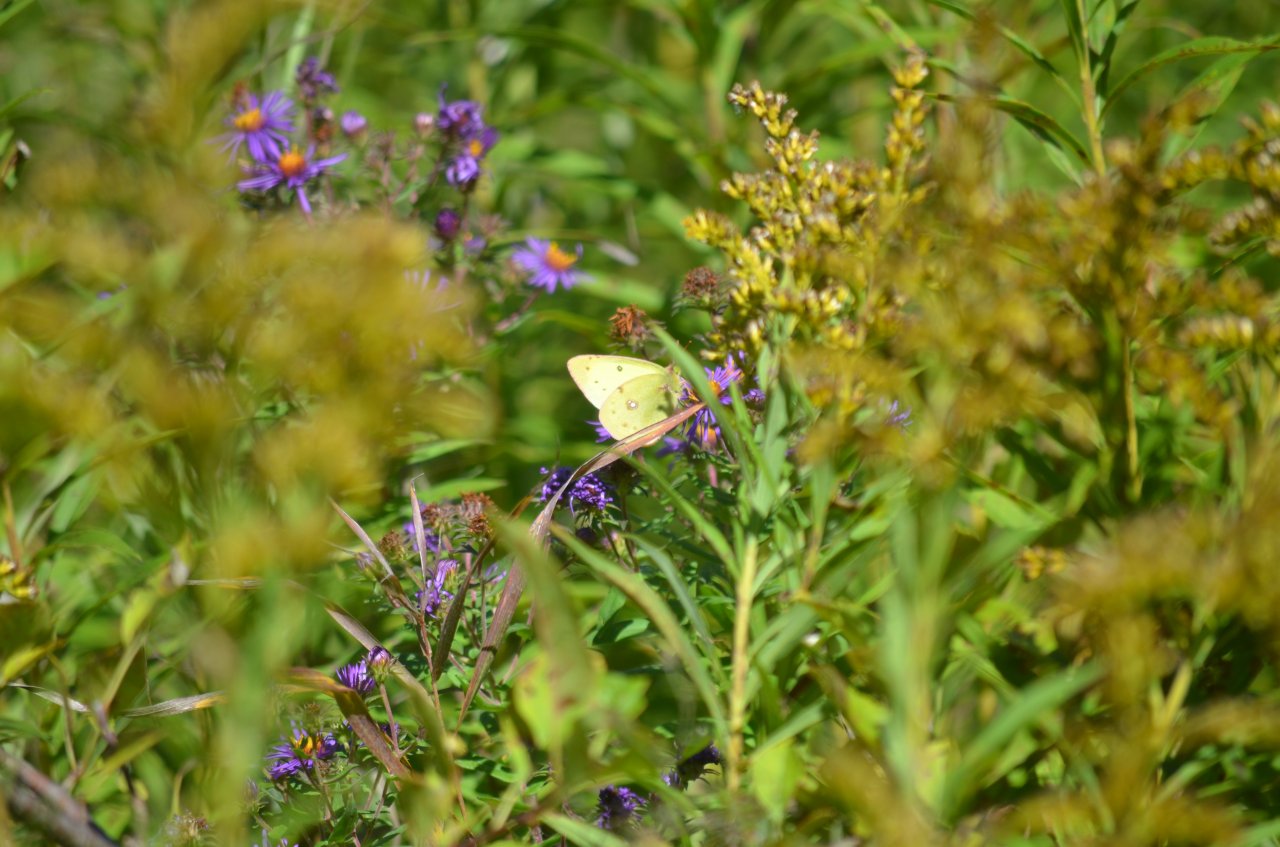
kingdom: Animalia
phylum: Arthropoda
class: Insecta
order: Lepidoptera
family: Pieridae
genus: Colias
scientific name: Colias philodice
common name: Clouded Sulphur
